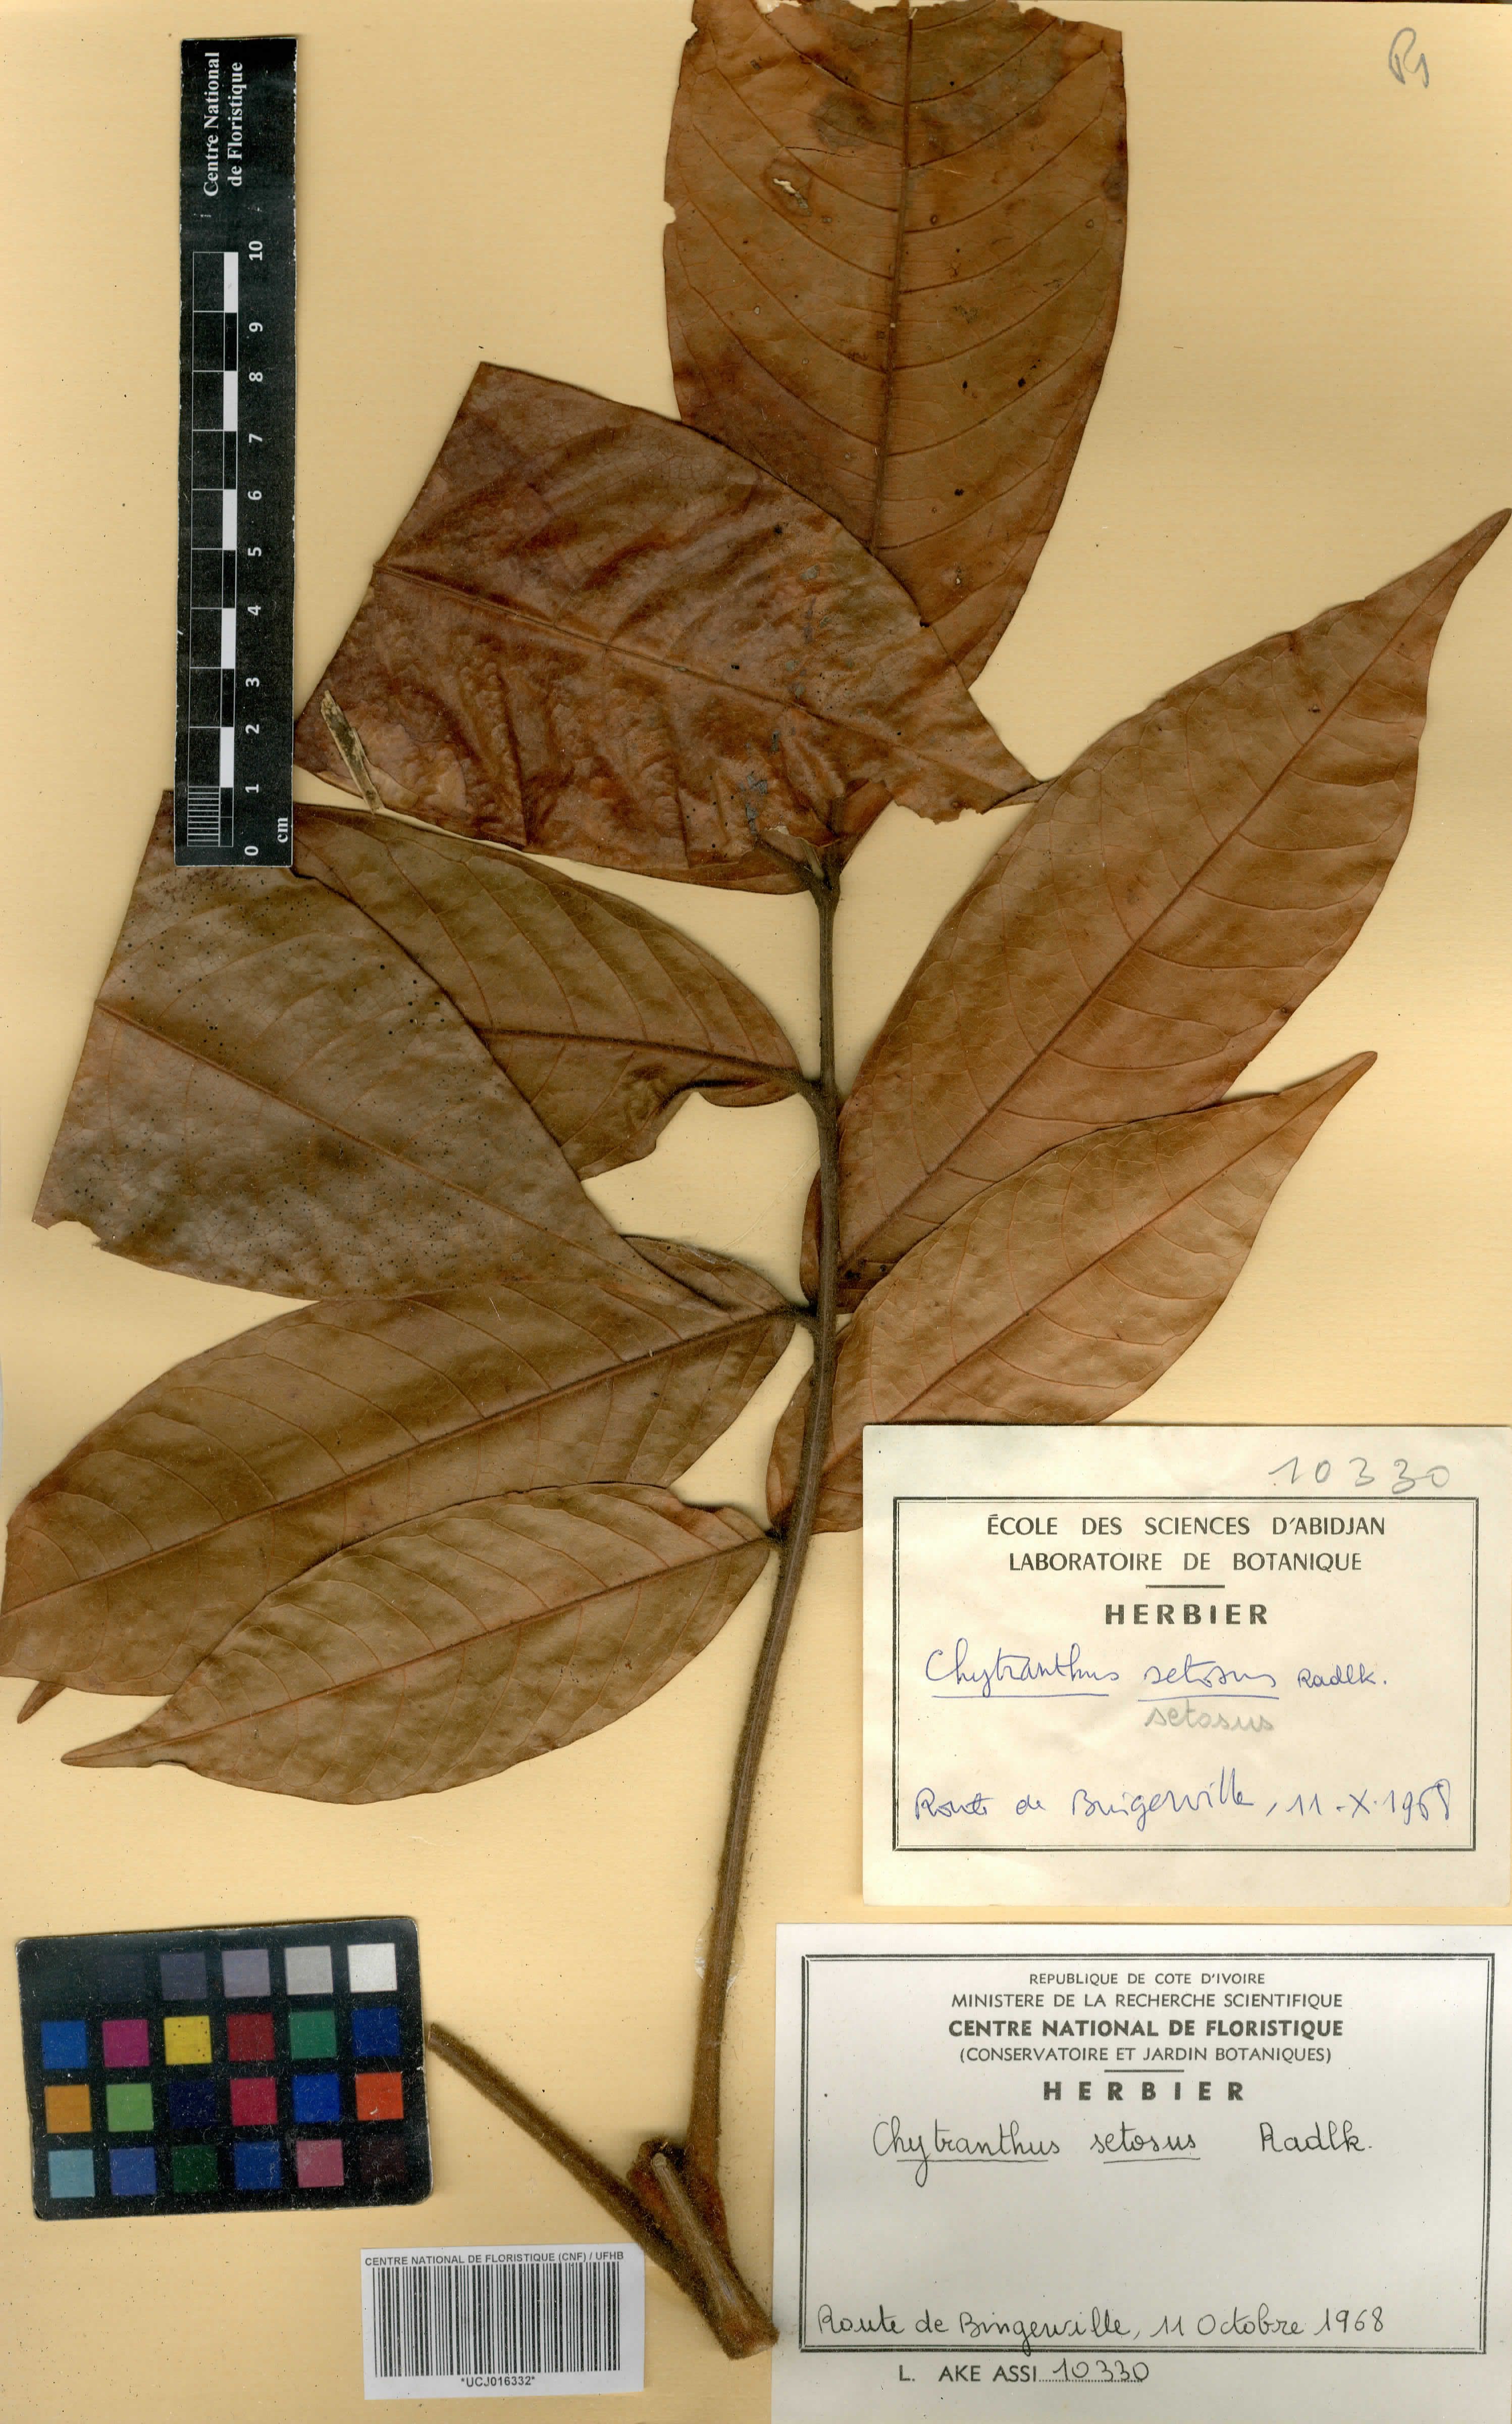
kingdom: Plantae
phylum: Tracheophyta
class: Magnoliopsida
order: Sapindales
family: Sapindaceae
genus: Chytranthus
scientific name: Chytranthus setosus
